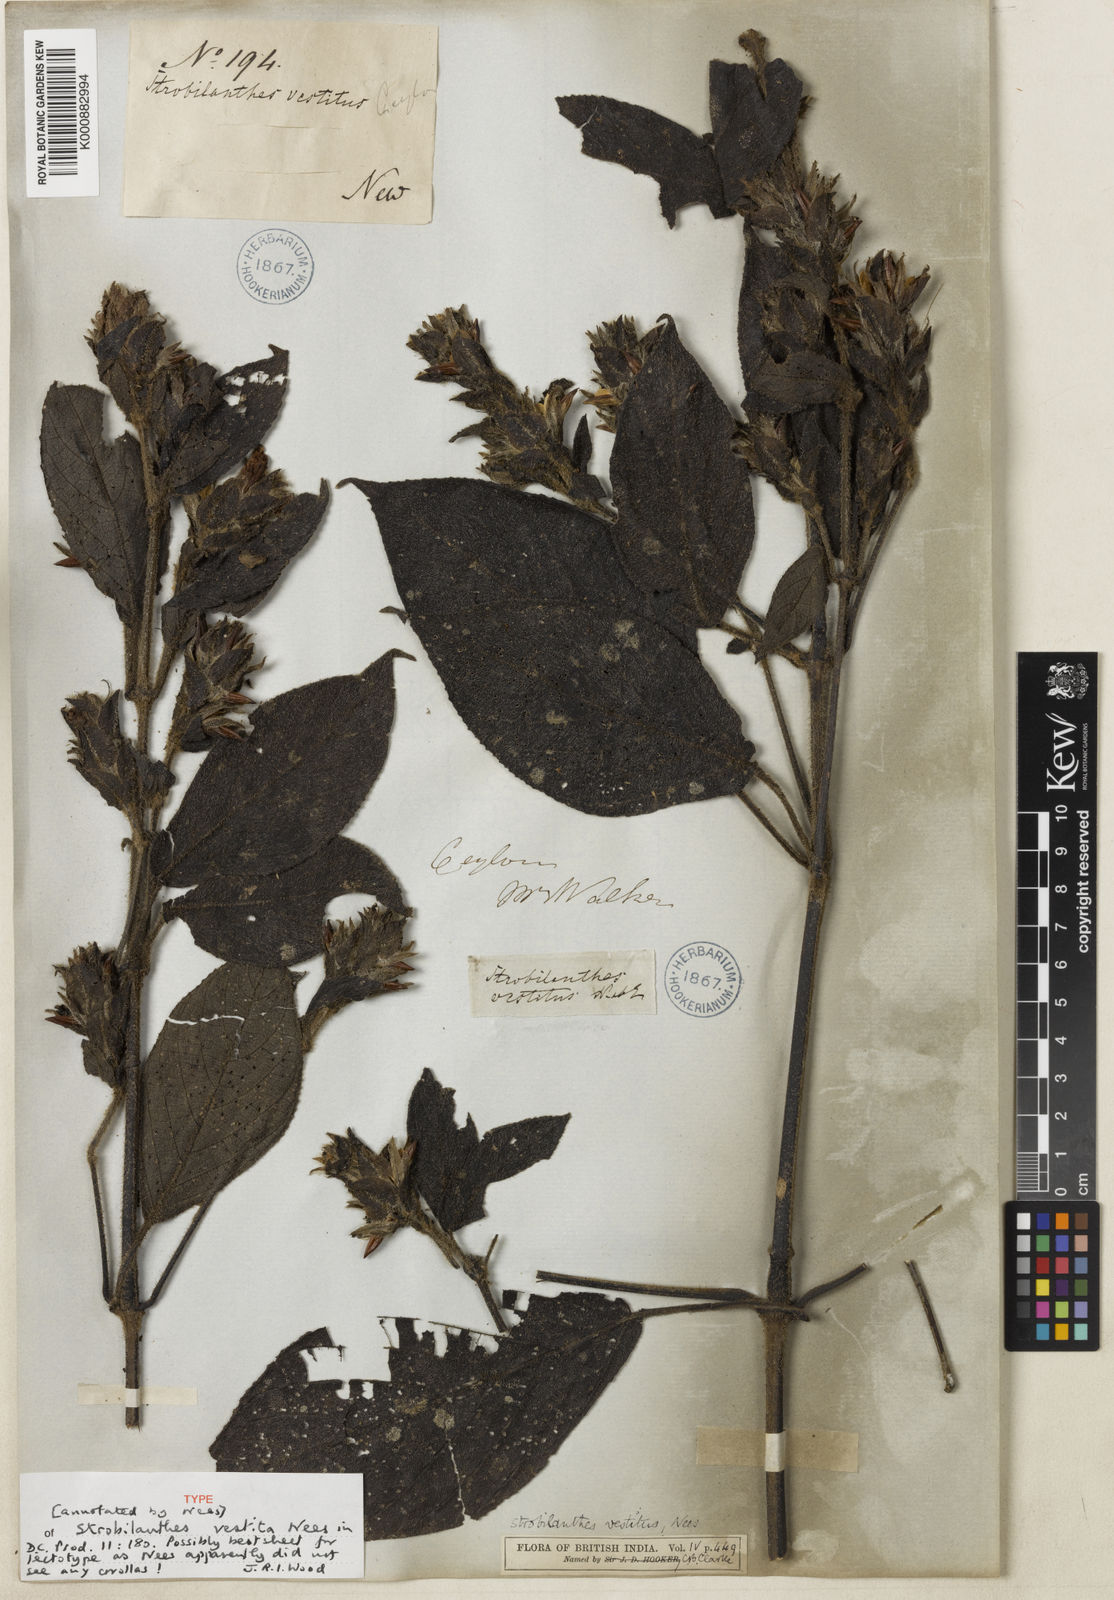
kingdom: Plantae
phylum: Tracheophyta
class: Magnoliopsida
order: Lamiales
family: Acanthaceae
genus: Strobilanthes
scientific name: Strobilanthes vestita
